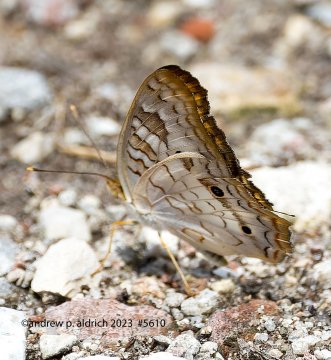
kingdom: Animalia
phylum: Arthropoda
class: Insecta
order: Lepidoptera
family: Nymphalidae
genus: Anartia
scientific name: Anartia jatrophae
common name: White Peacock
